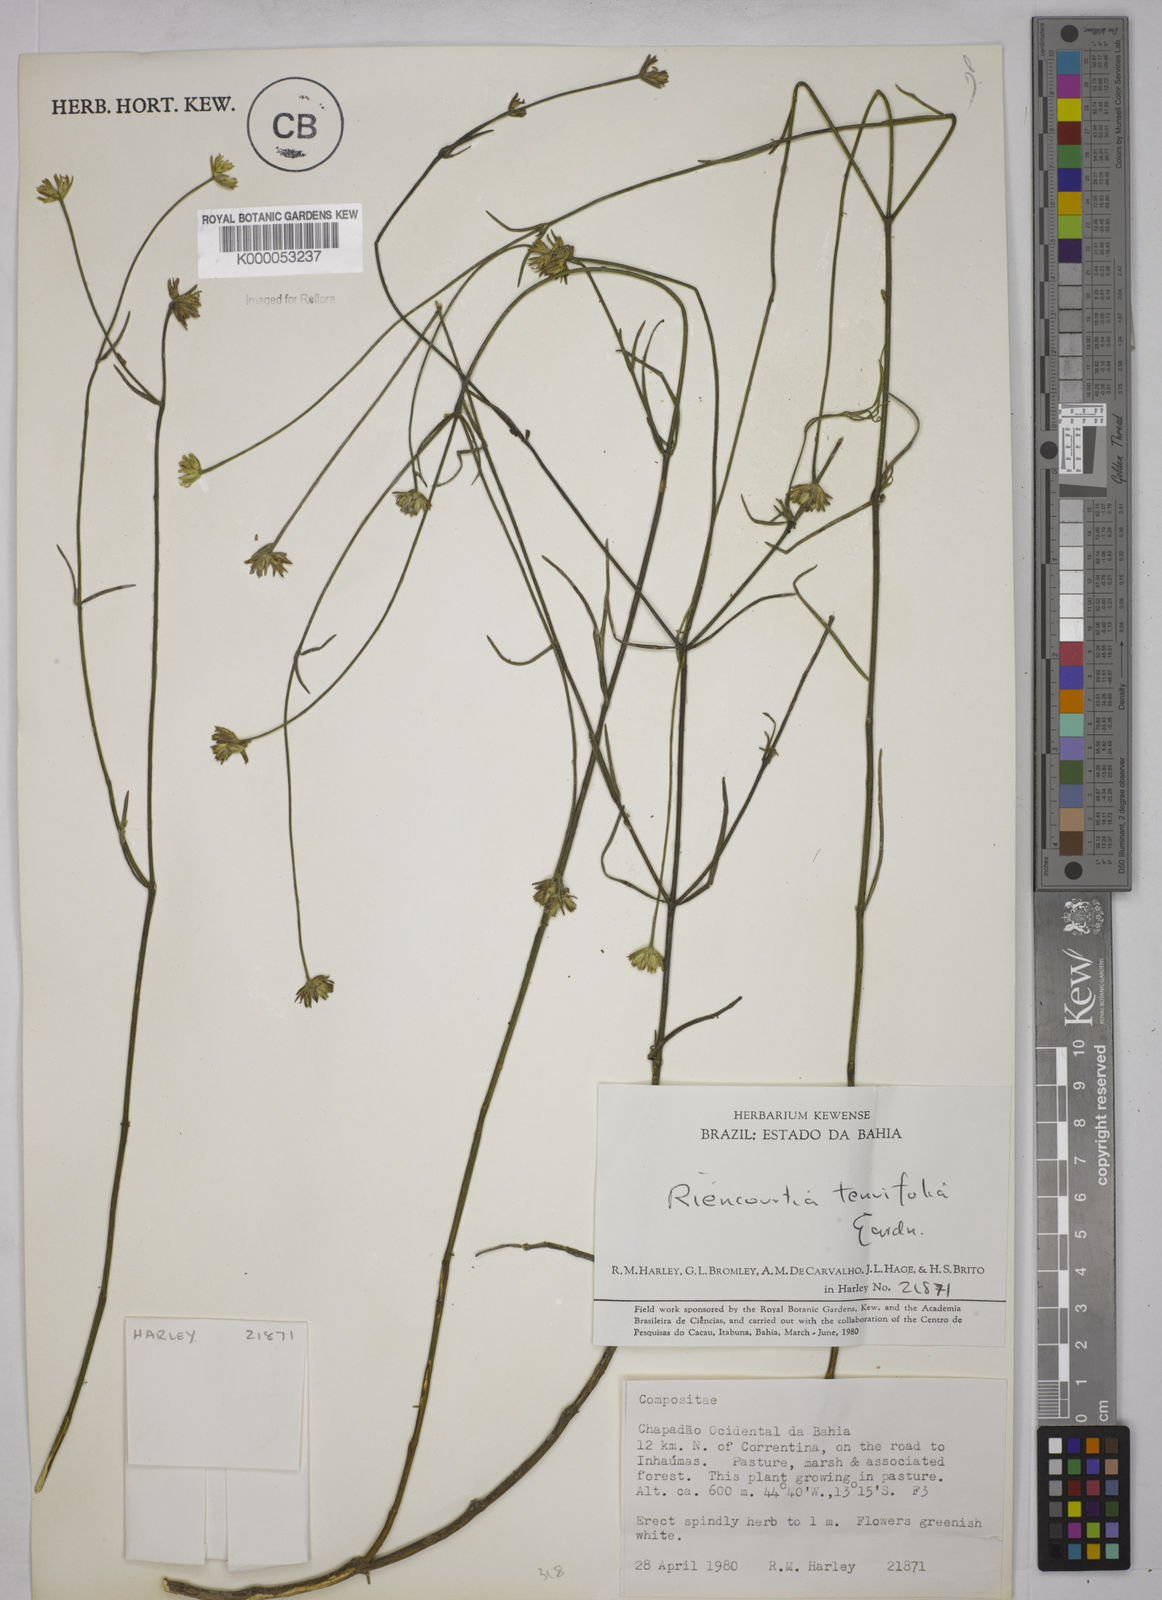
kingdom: Plantae
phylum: Tracheophyta
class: Magnoliopsida
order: Asterales
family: Asteraceae
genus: Riencourtia
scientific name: Riencourtia tenuifolia
